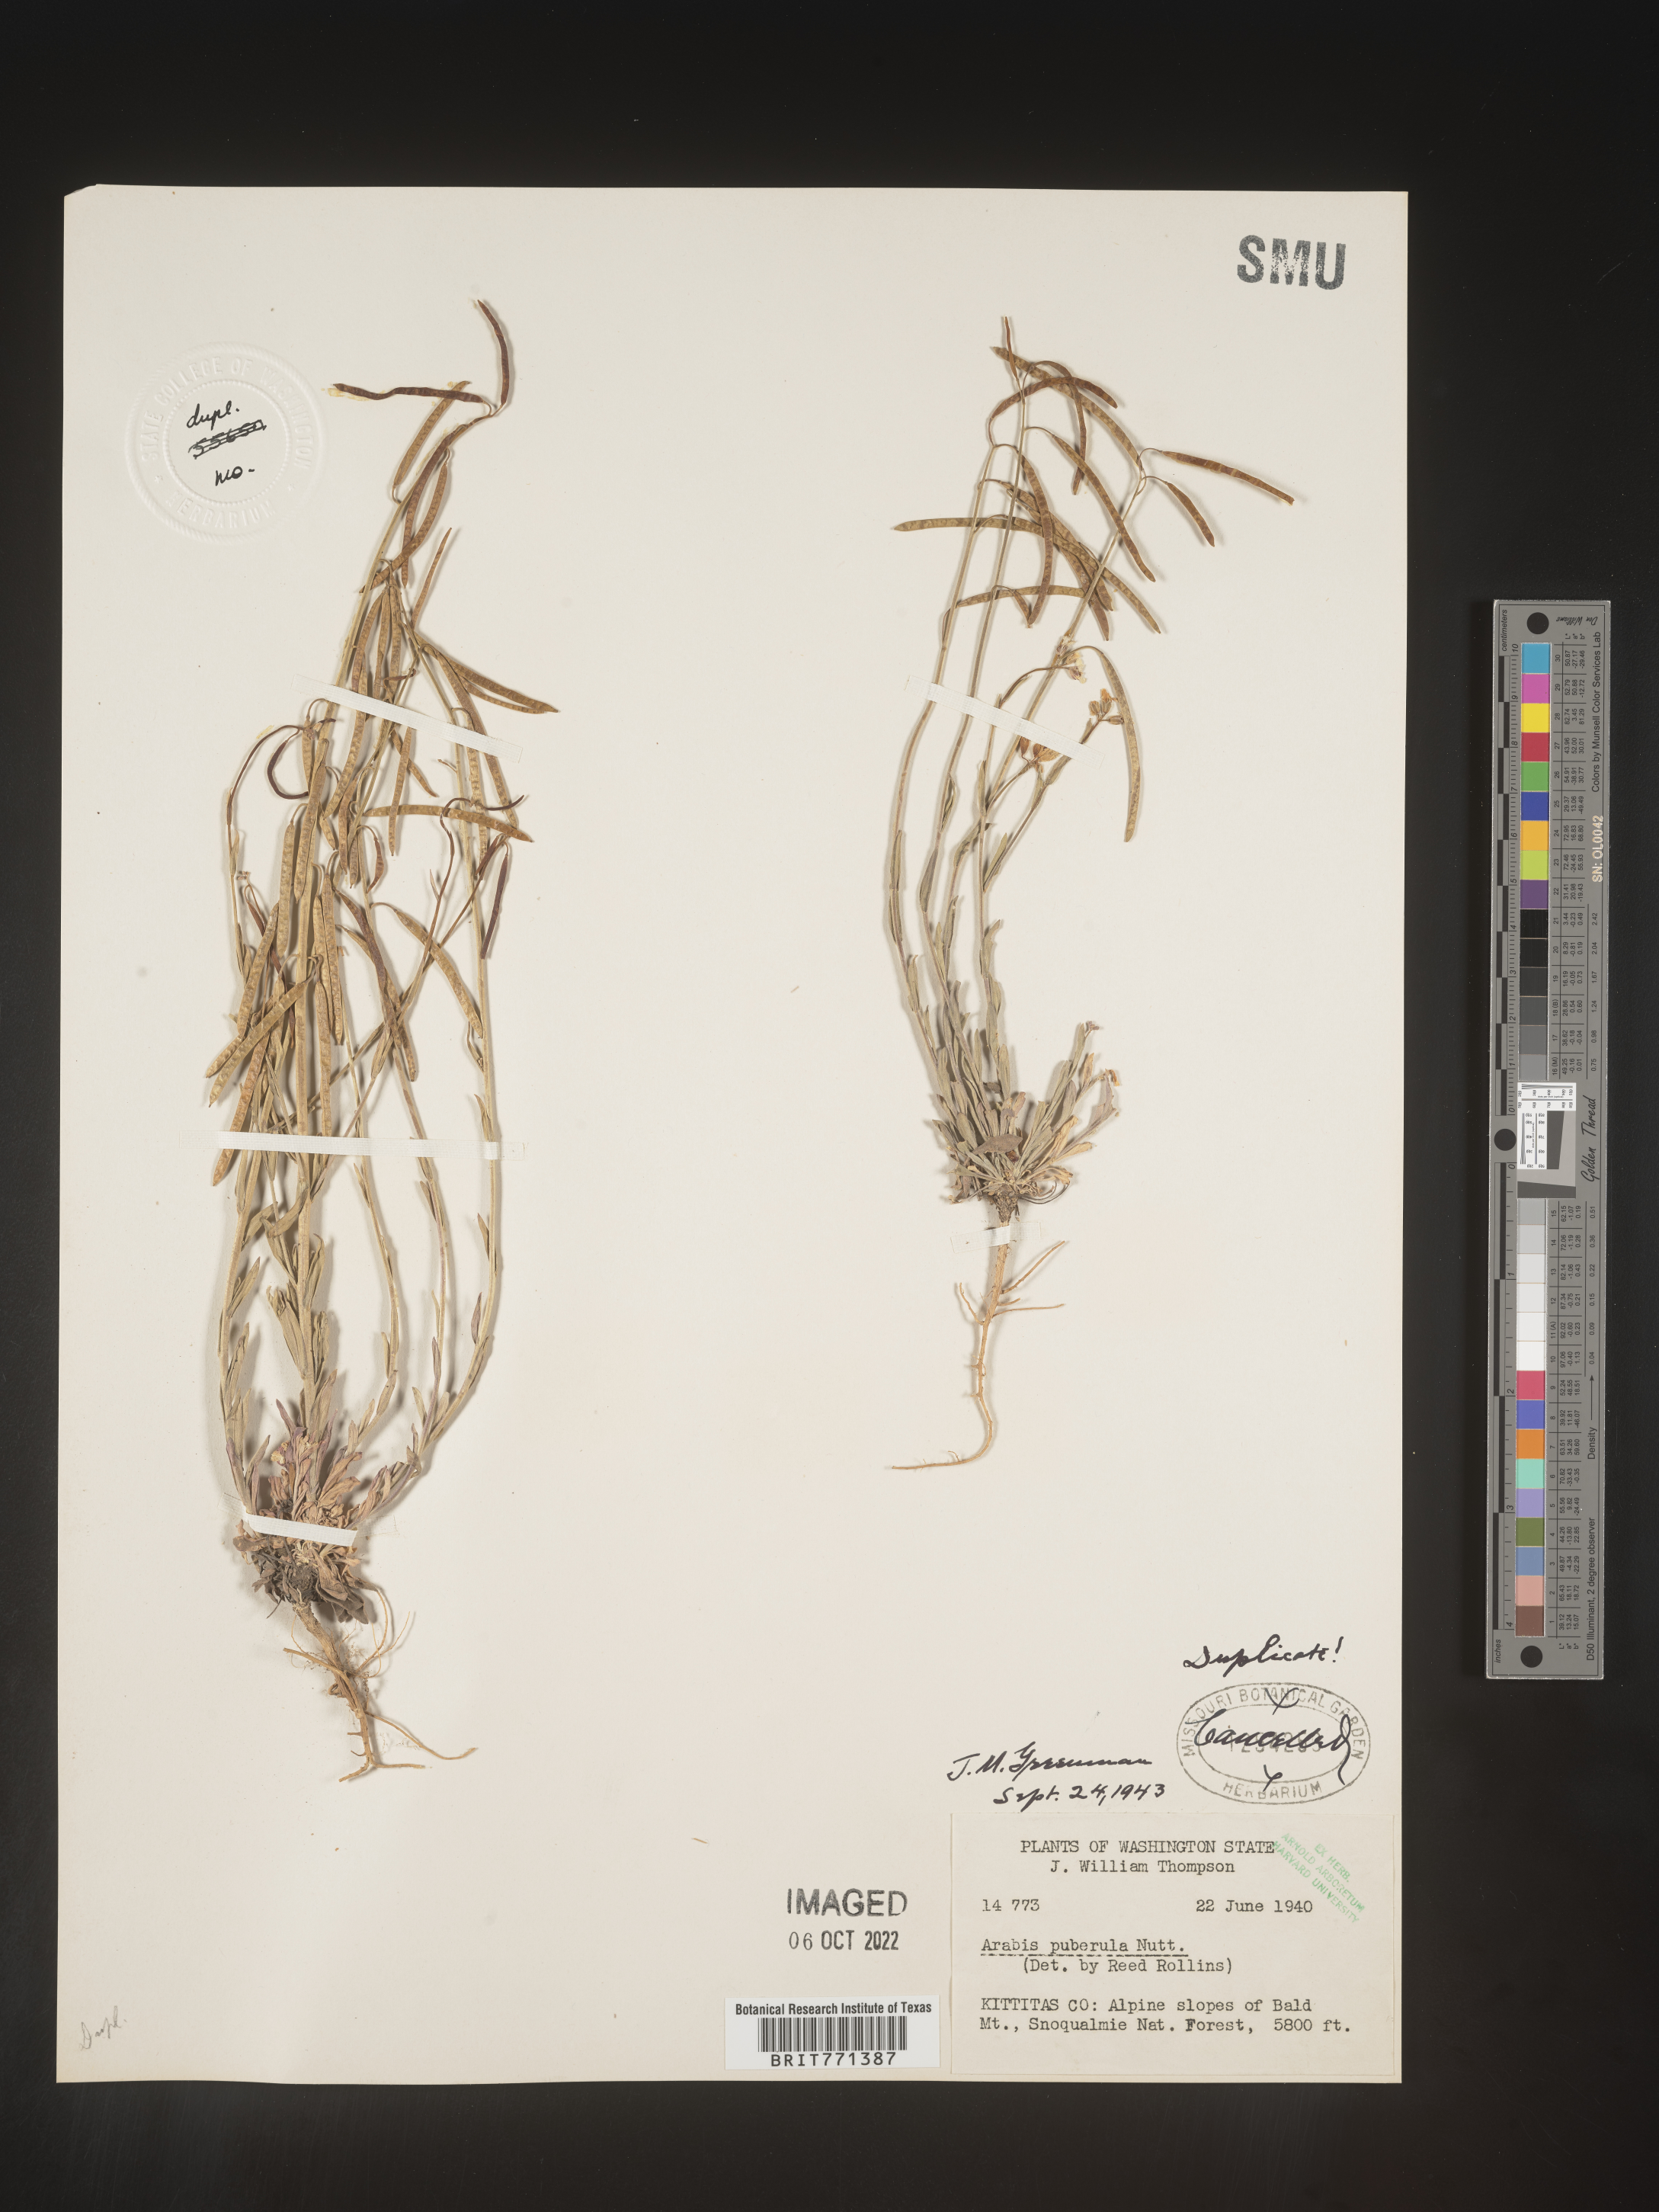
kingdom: Plantae
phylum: Tracheophyta
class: Magnoliopsida
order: Brassicales
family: Brassicaceae
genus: Arabis
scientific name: Arabis
